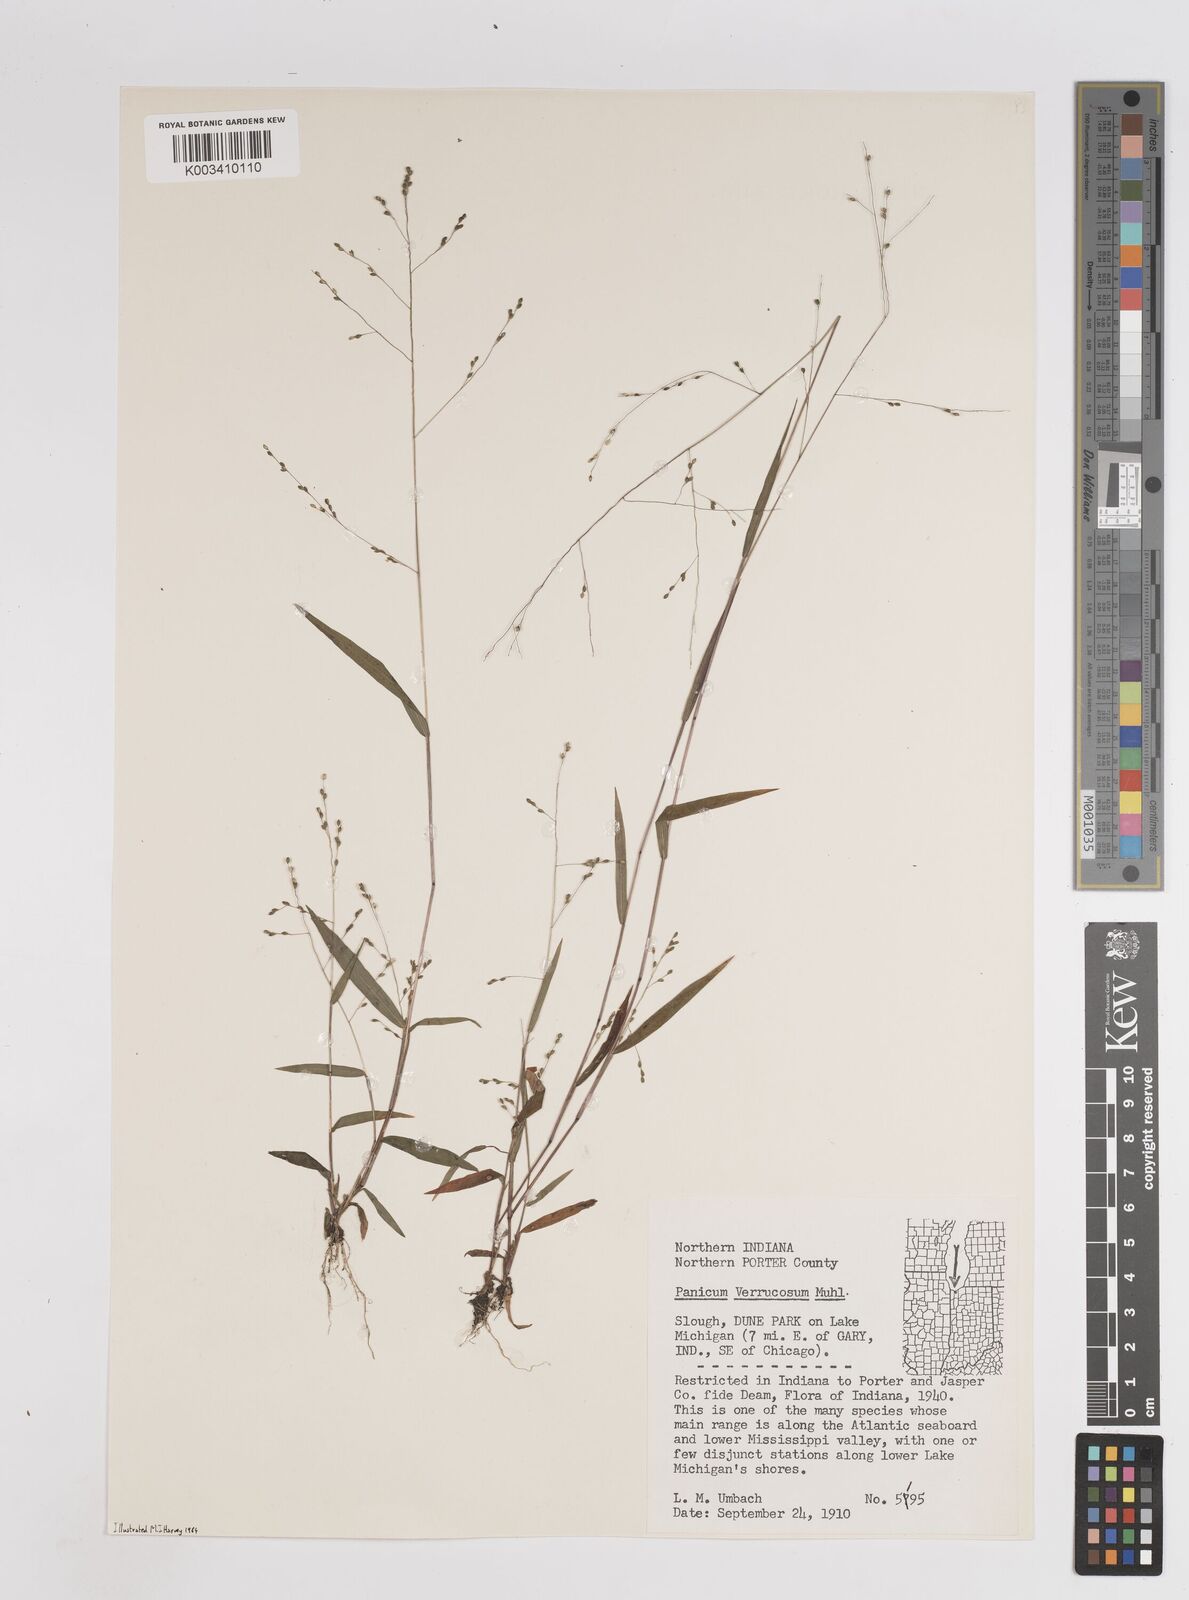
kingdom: Plantae
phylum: Tracheophyta
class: Liliopsida
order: Poales
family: Poaceae
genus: Kellochloa
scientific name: Kellochloa verrucosa
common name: Warty panic grass
